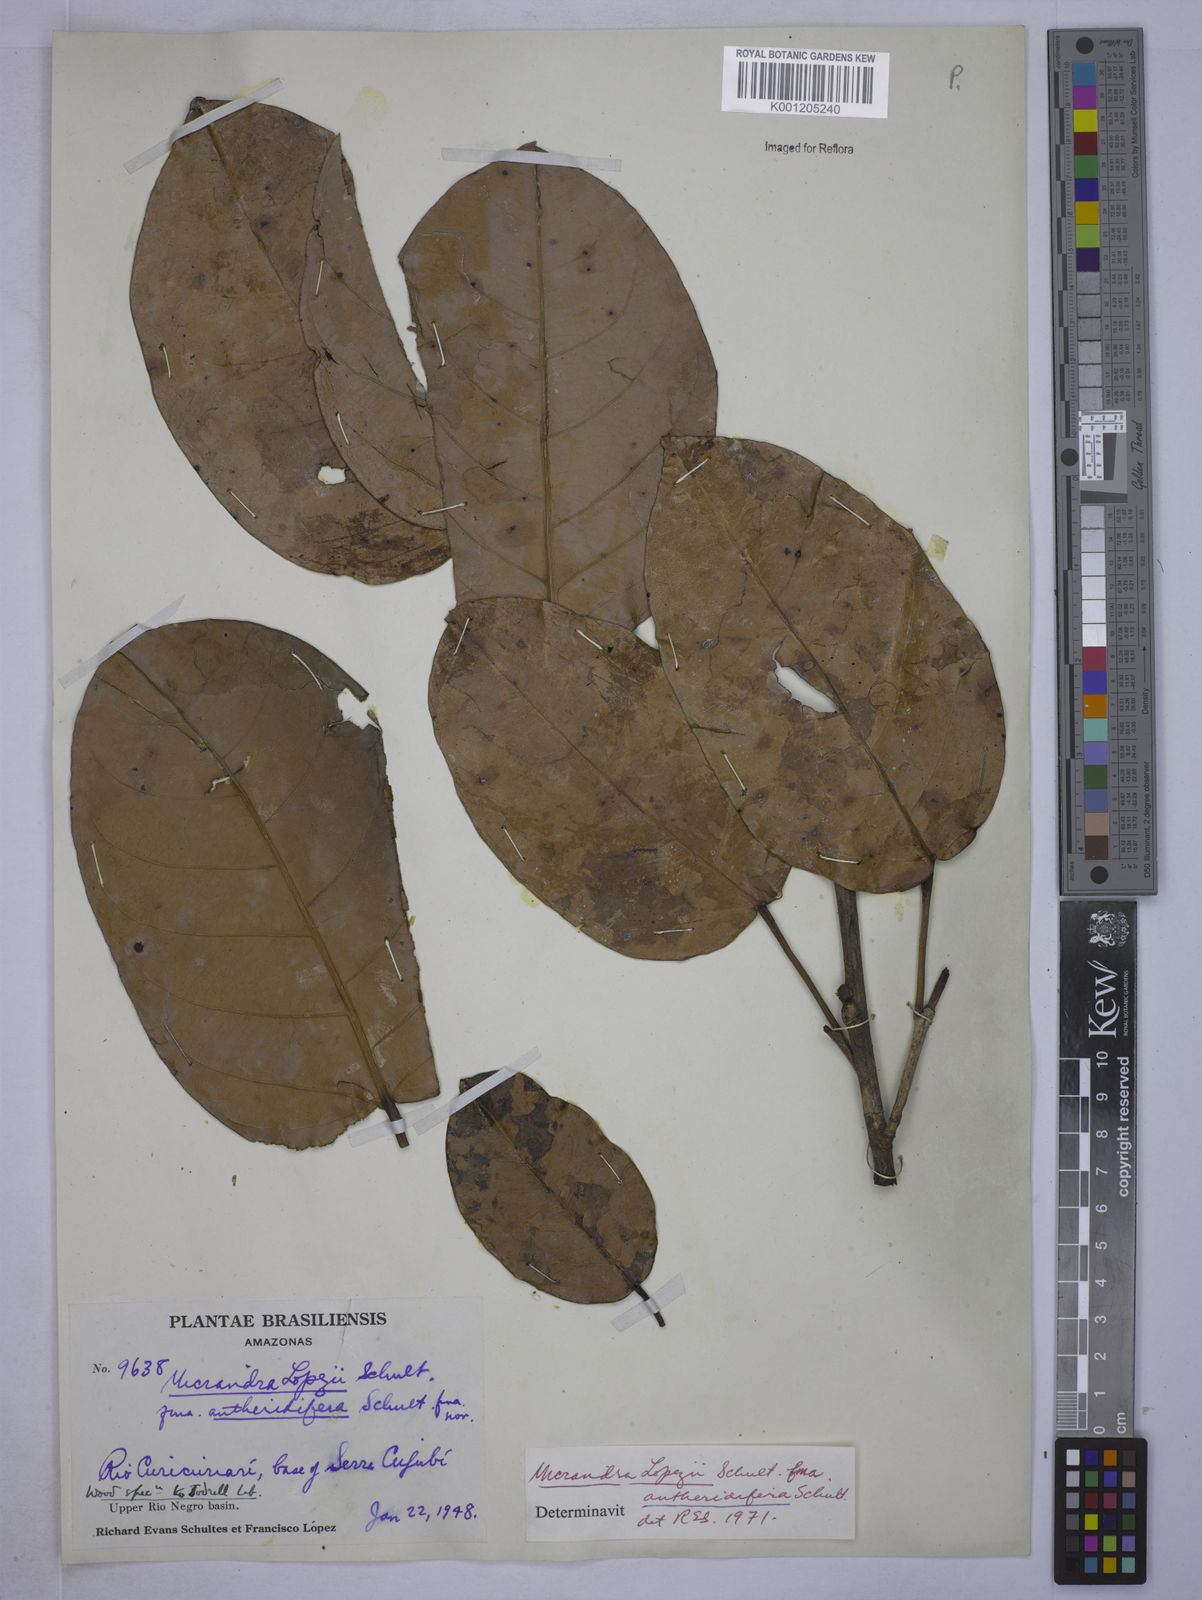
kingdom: Plantae
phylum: Tracheophyta
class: Magnoliopsida
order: Malpighiales
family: Euphorbiaceae
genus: Micrandra
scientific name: Micrandra lopezii
